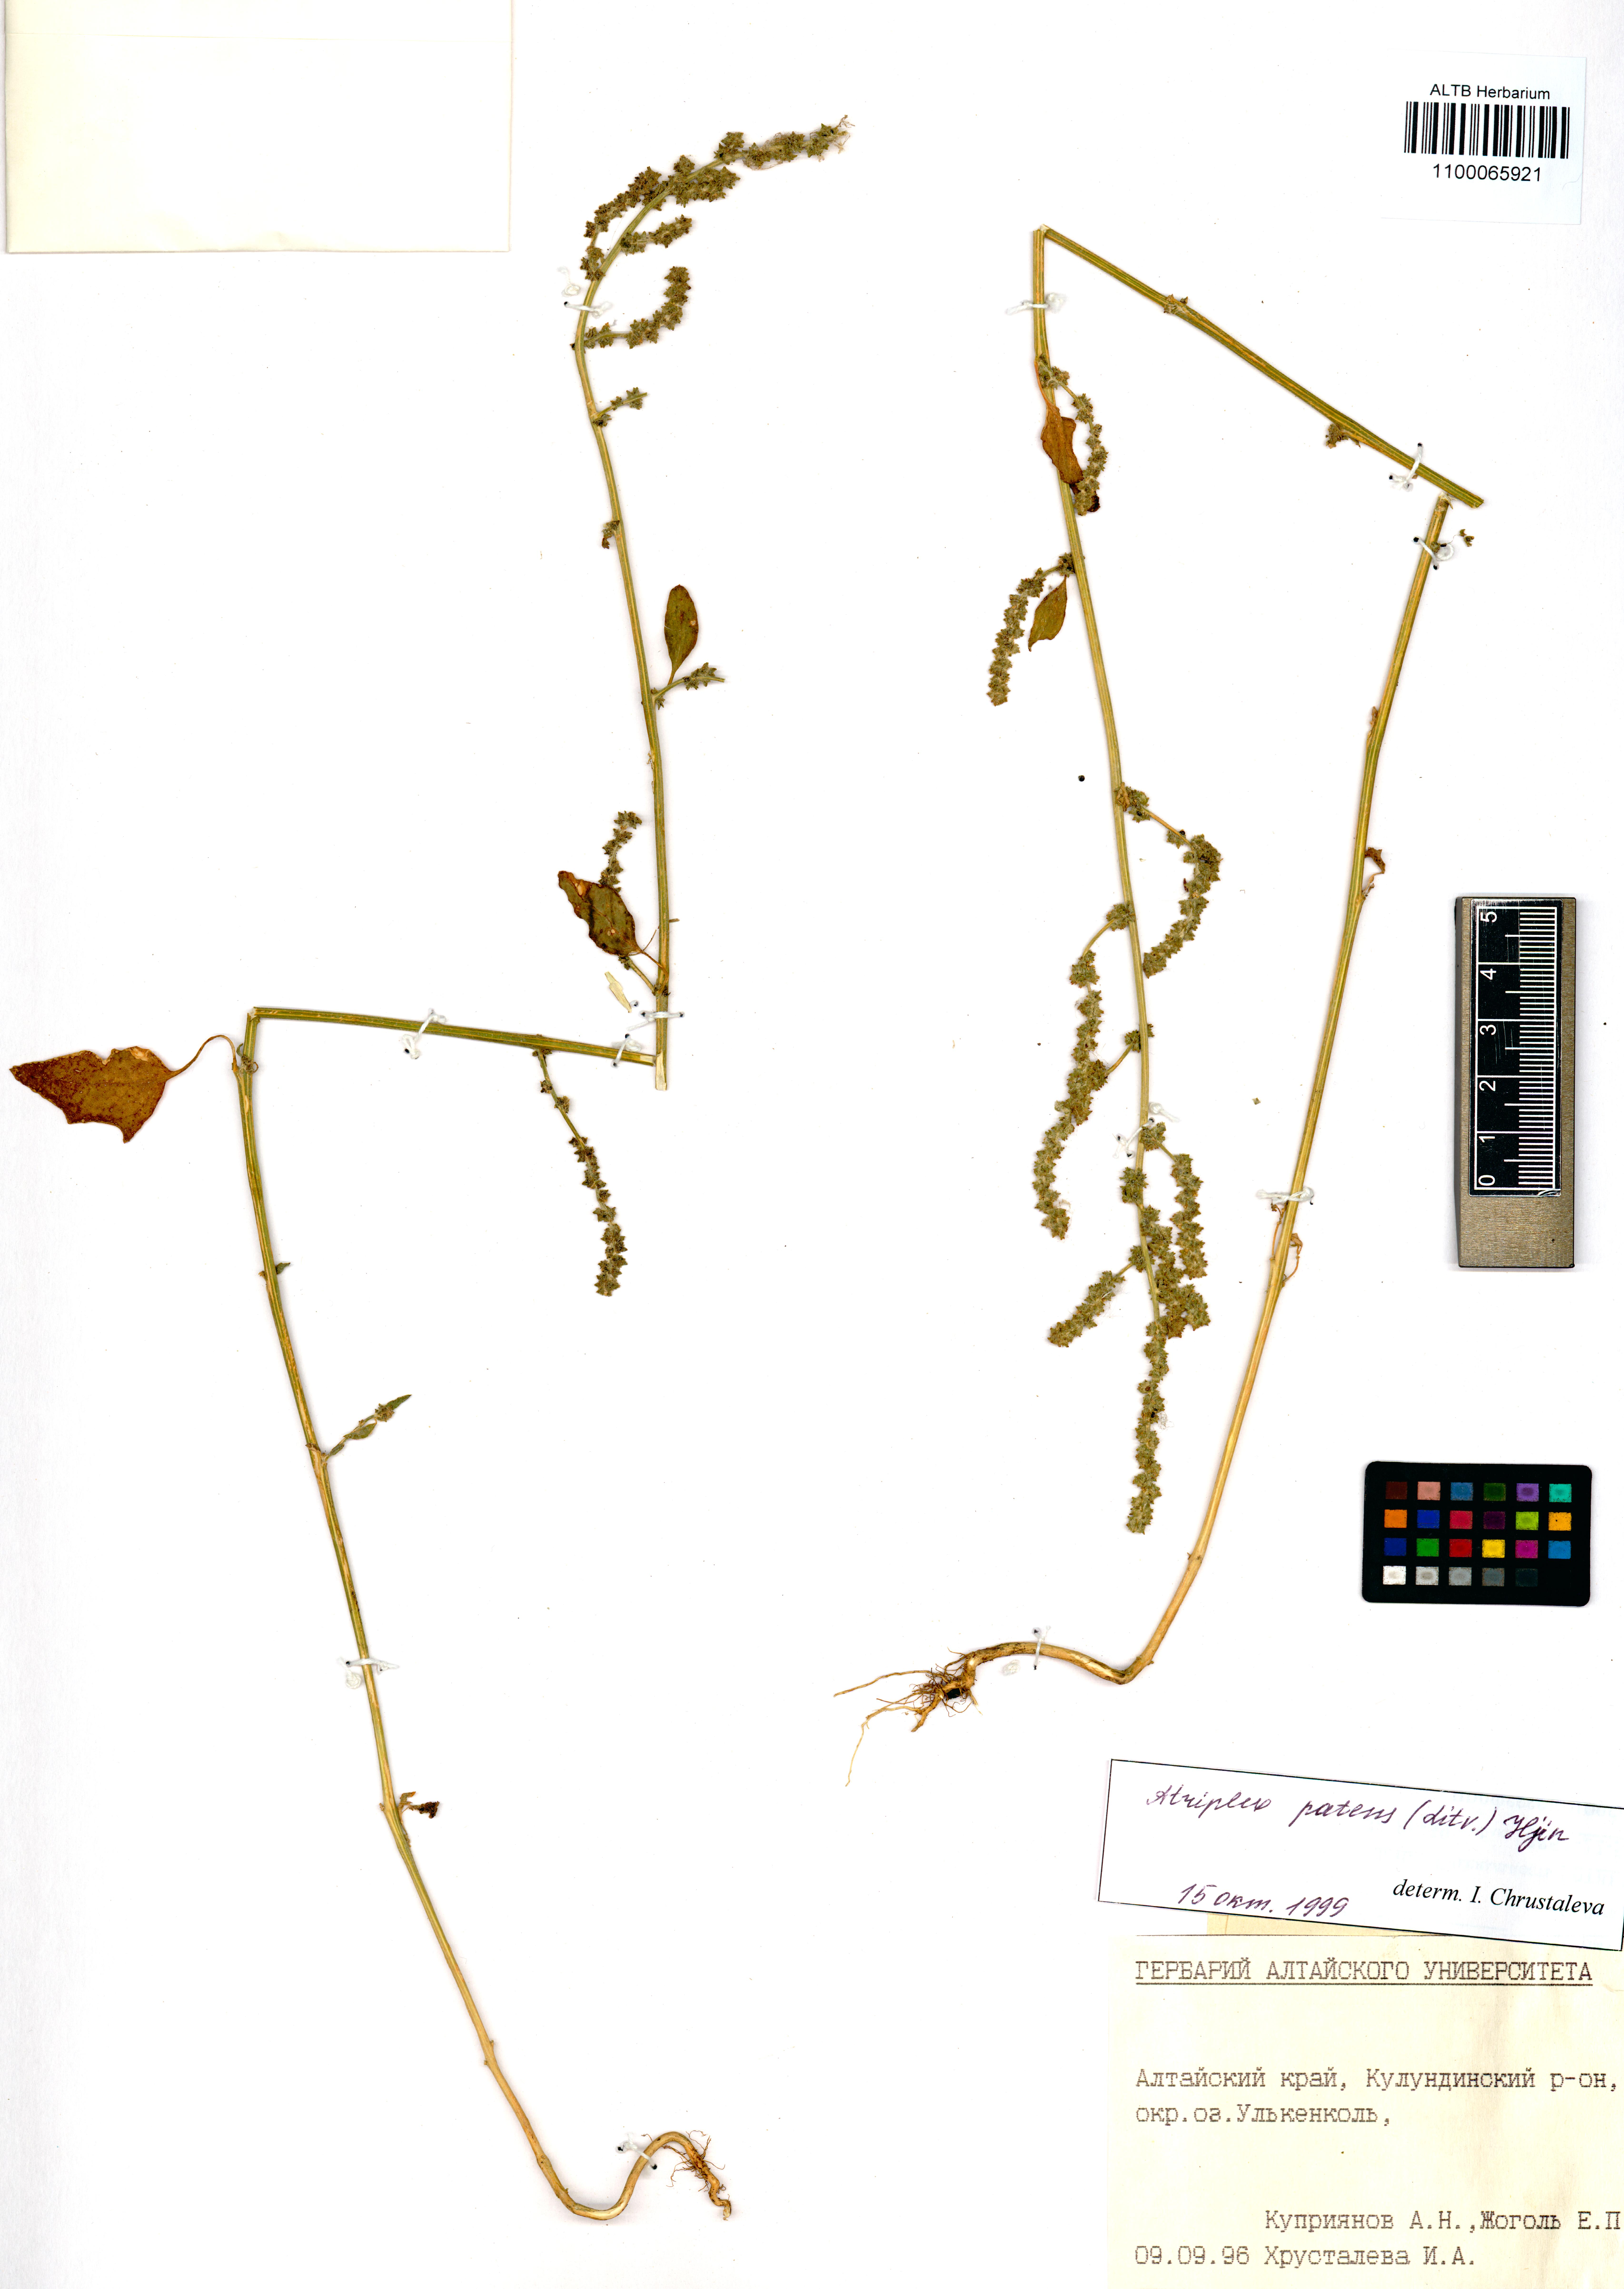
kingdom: Plantae
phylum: Tracheophyta
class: Magnoliopsida
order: Caryophyllales
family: Amaranthaceae
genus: Amaranthus
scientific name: Amaranthus retroflexus
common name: Redroot amaranth
